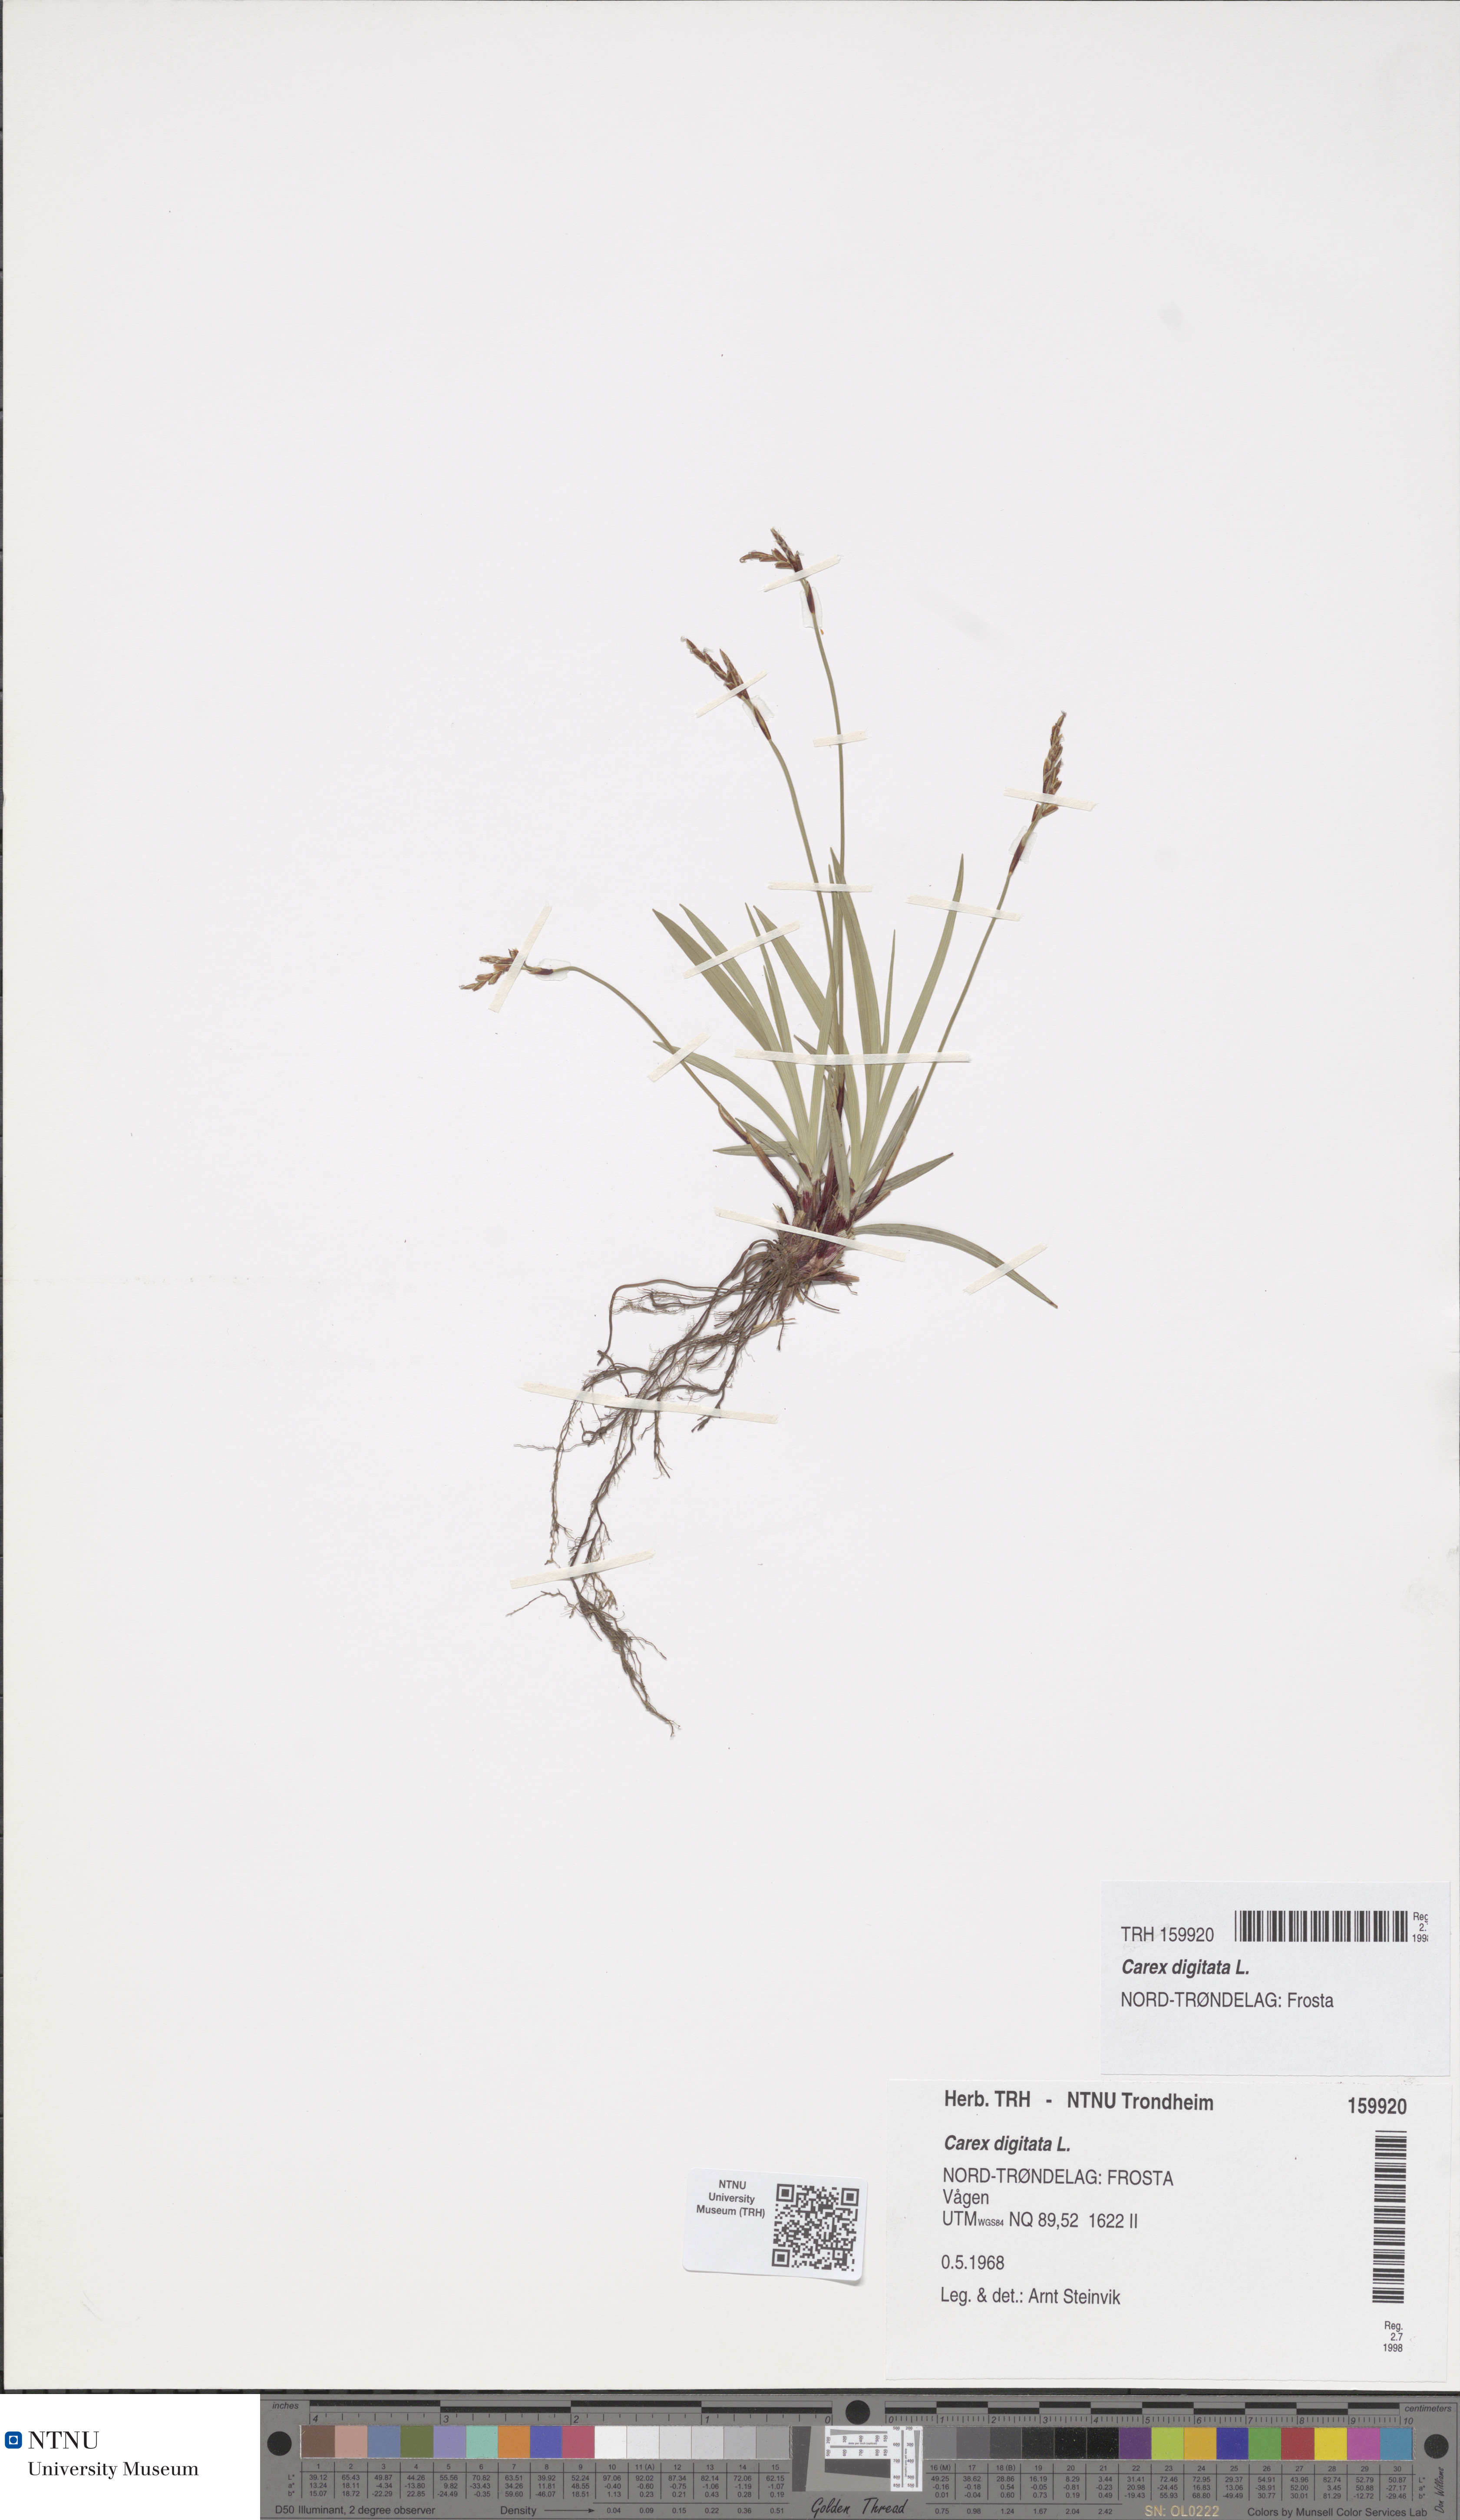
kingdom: Plantae
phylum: Tracheophyta
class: Liliopsida
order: Poales
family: Cyperaceae
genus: Carex
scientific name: Carex digitata
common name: Fingered sedge
